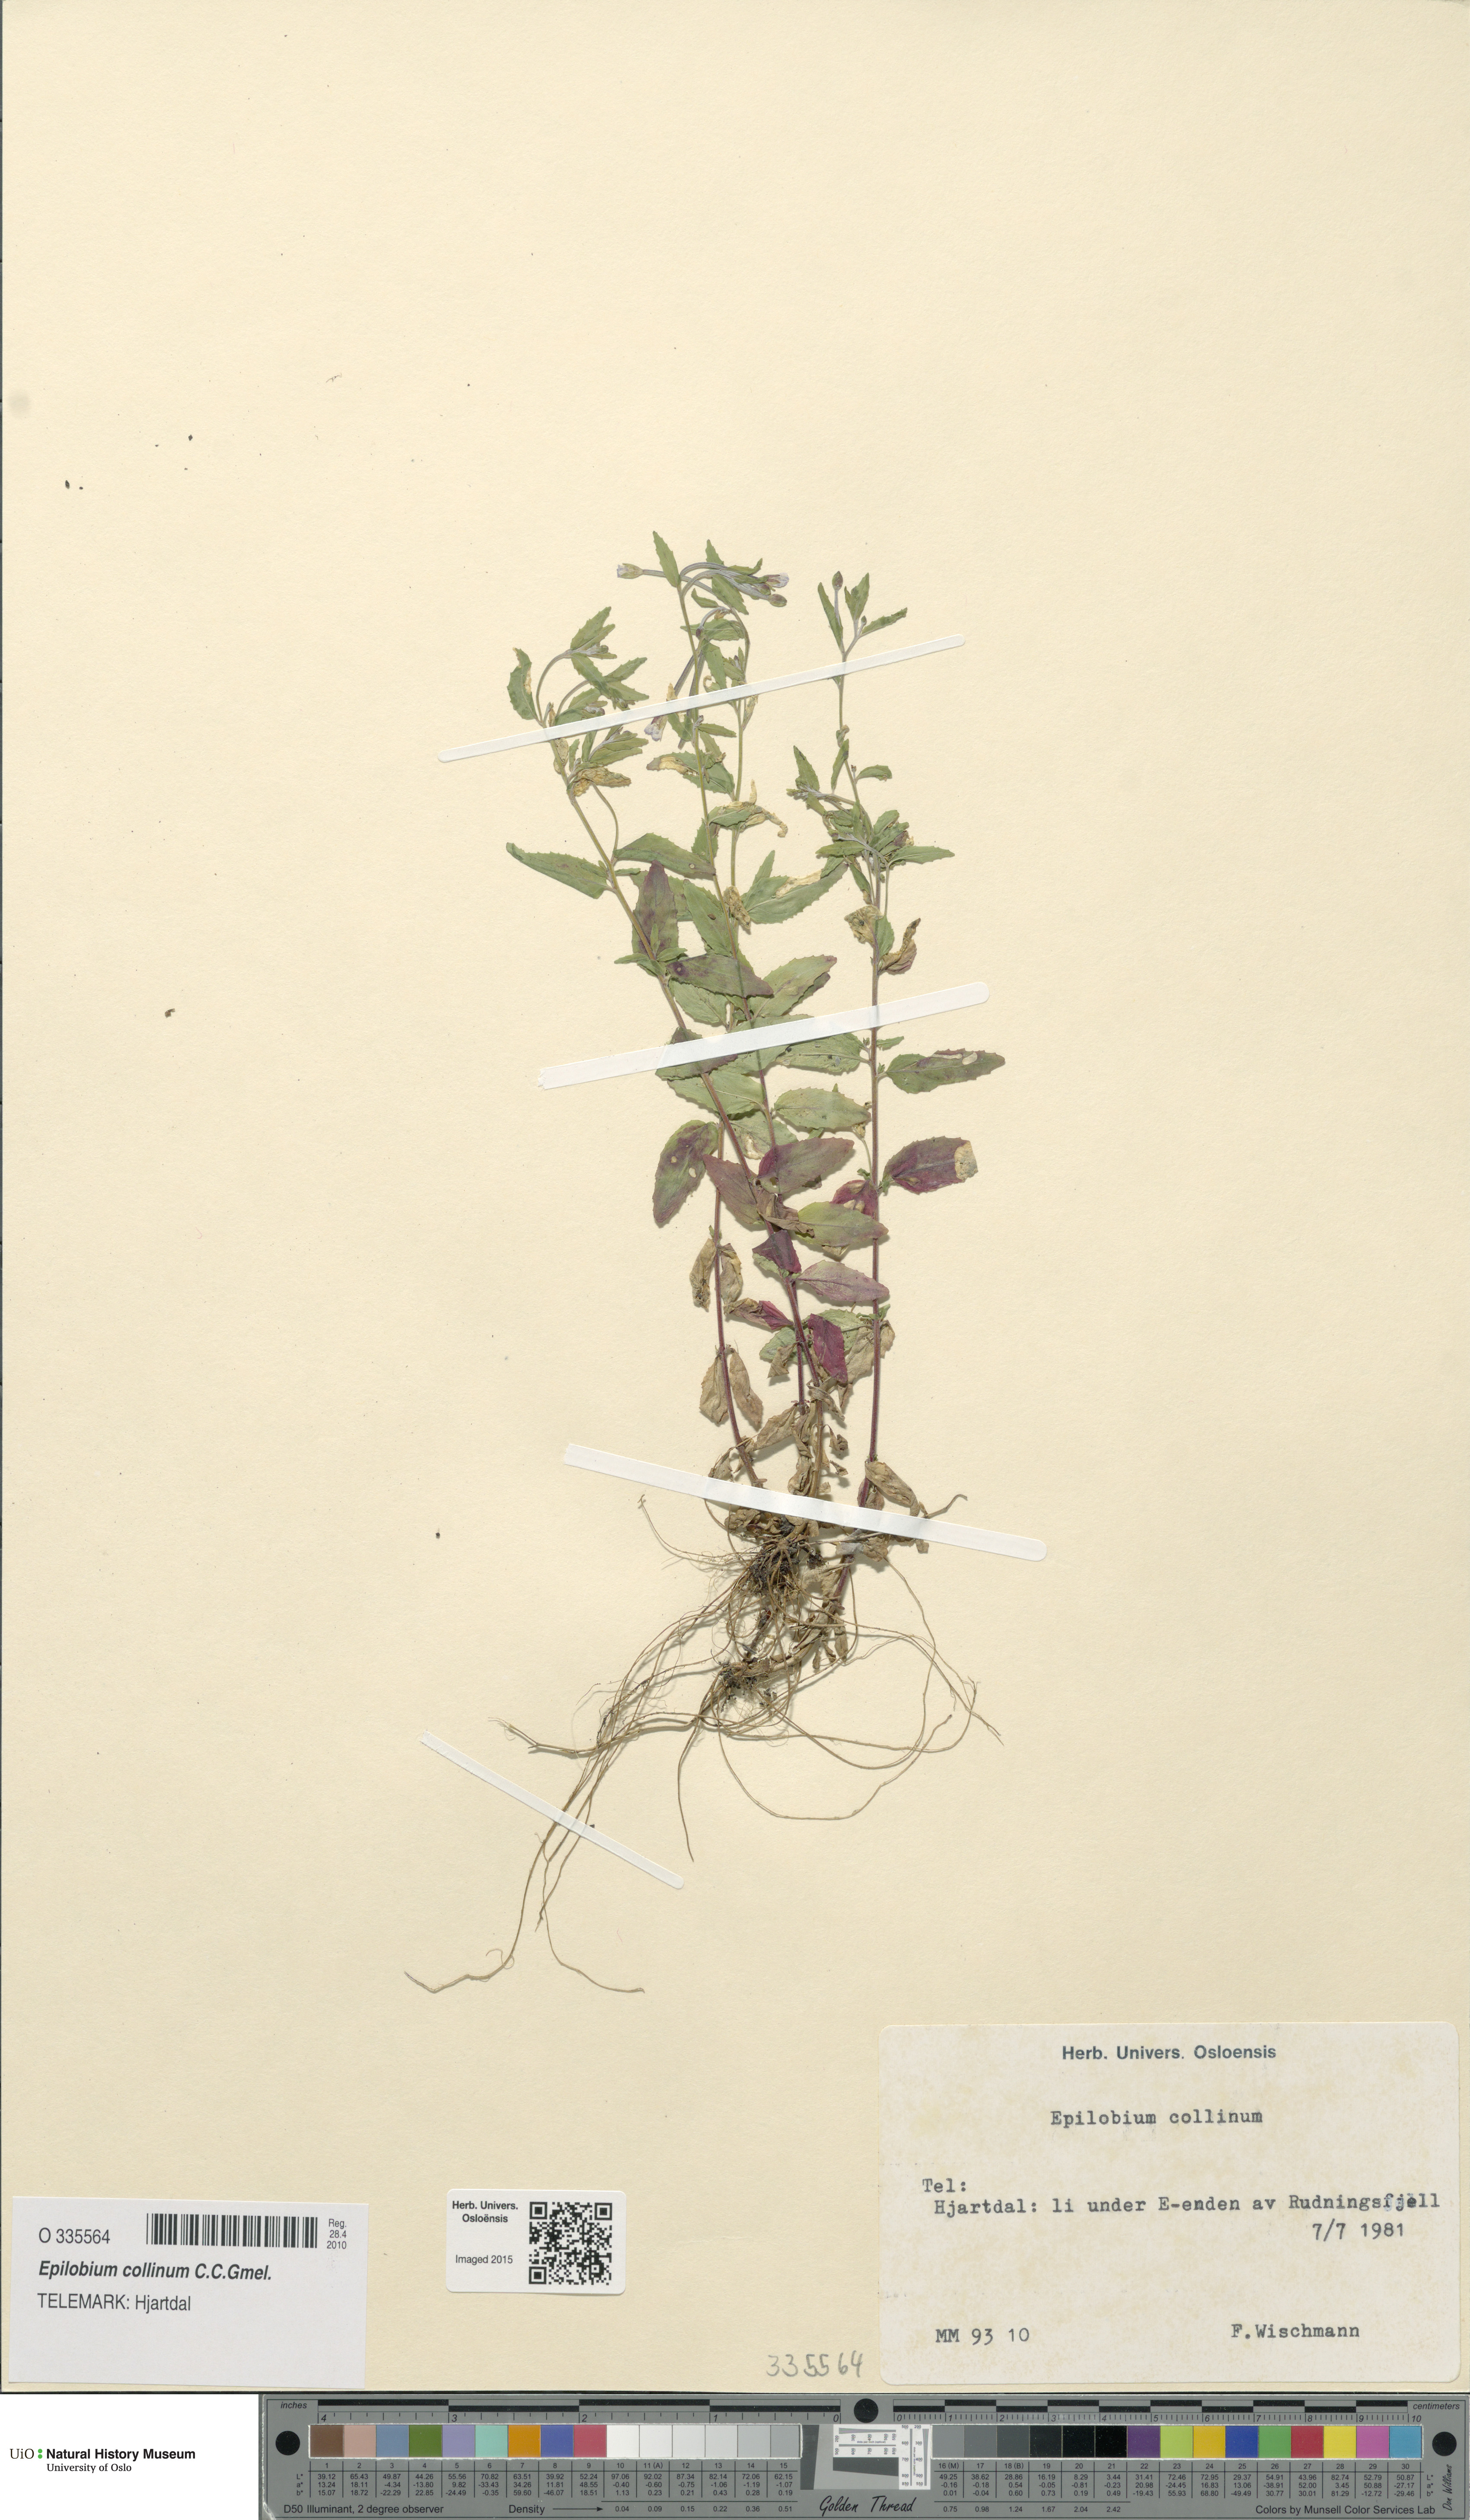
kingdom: Plantae
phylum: Tracheophyta
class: Magnoliopsida
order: Myrtales
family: Onagraceae
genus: Epilobium
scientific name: Epilobium collinum
